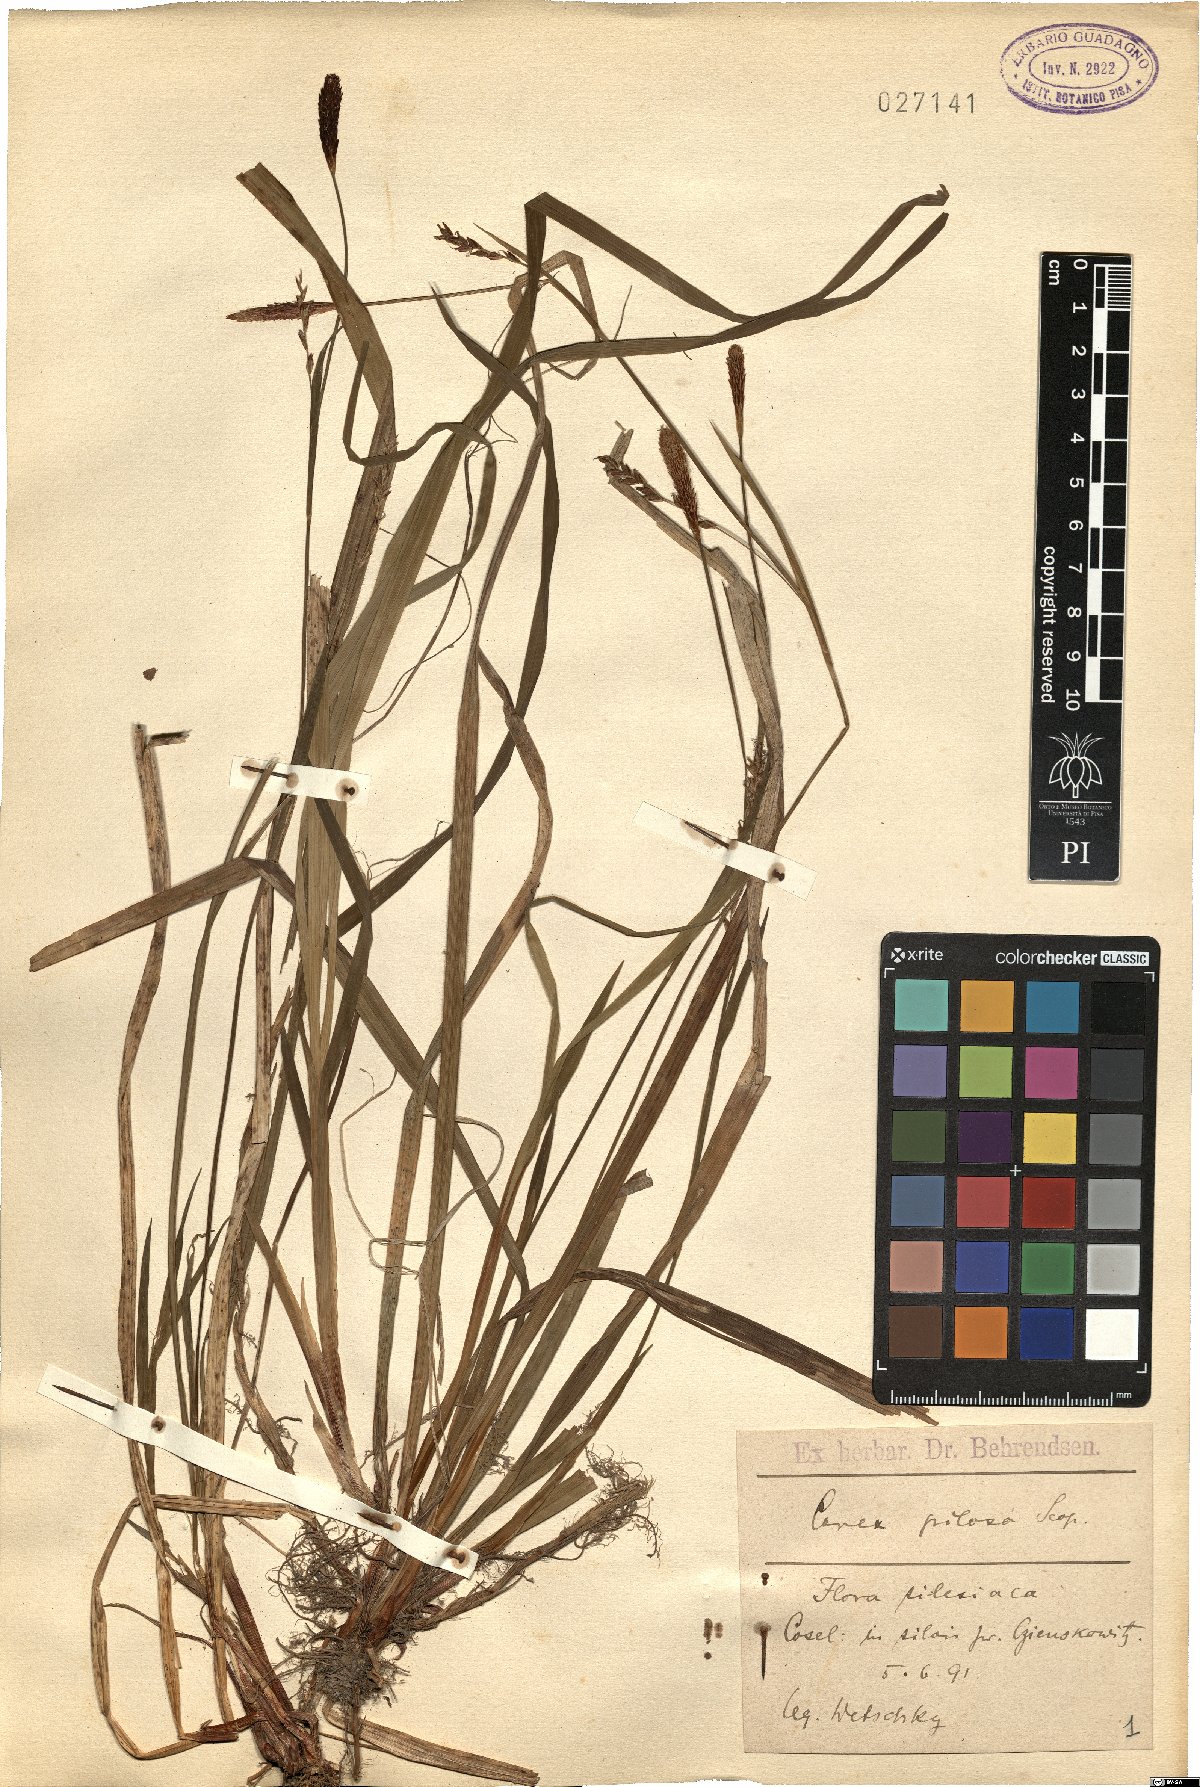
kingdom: Plantae
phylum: Tracheophyta
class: Liliopsida
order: Poales
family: Cyperaceae
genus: Carex
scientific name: Carex pilosa
